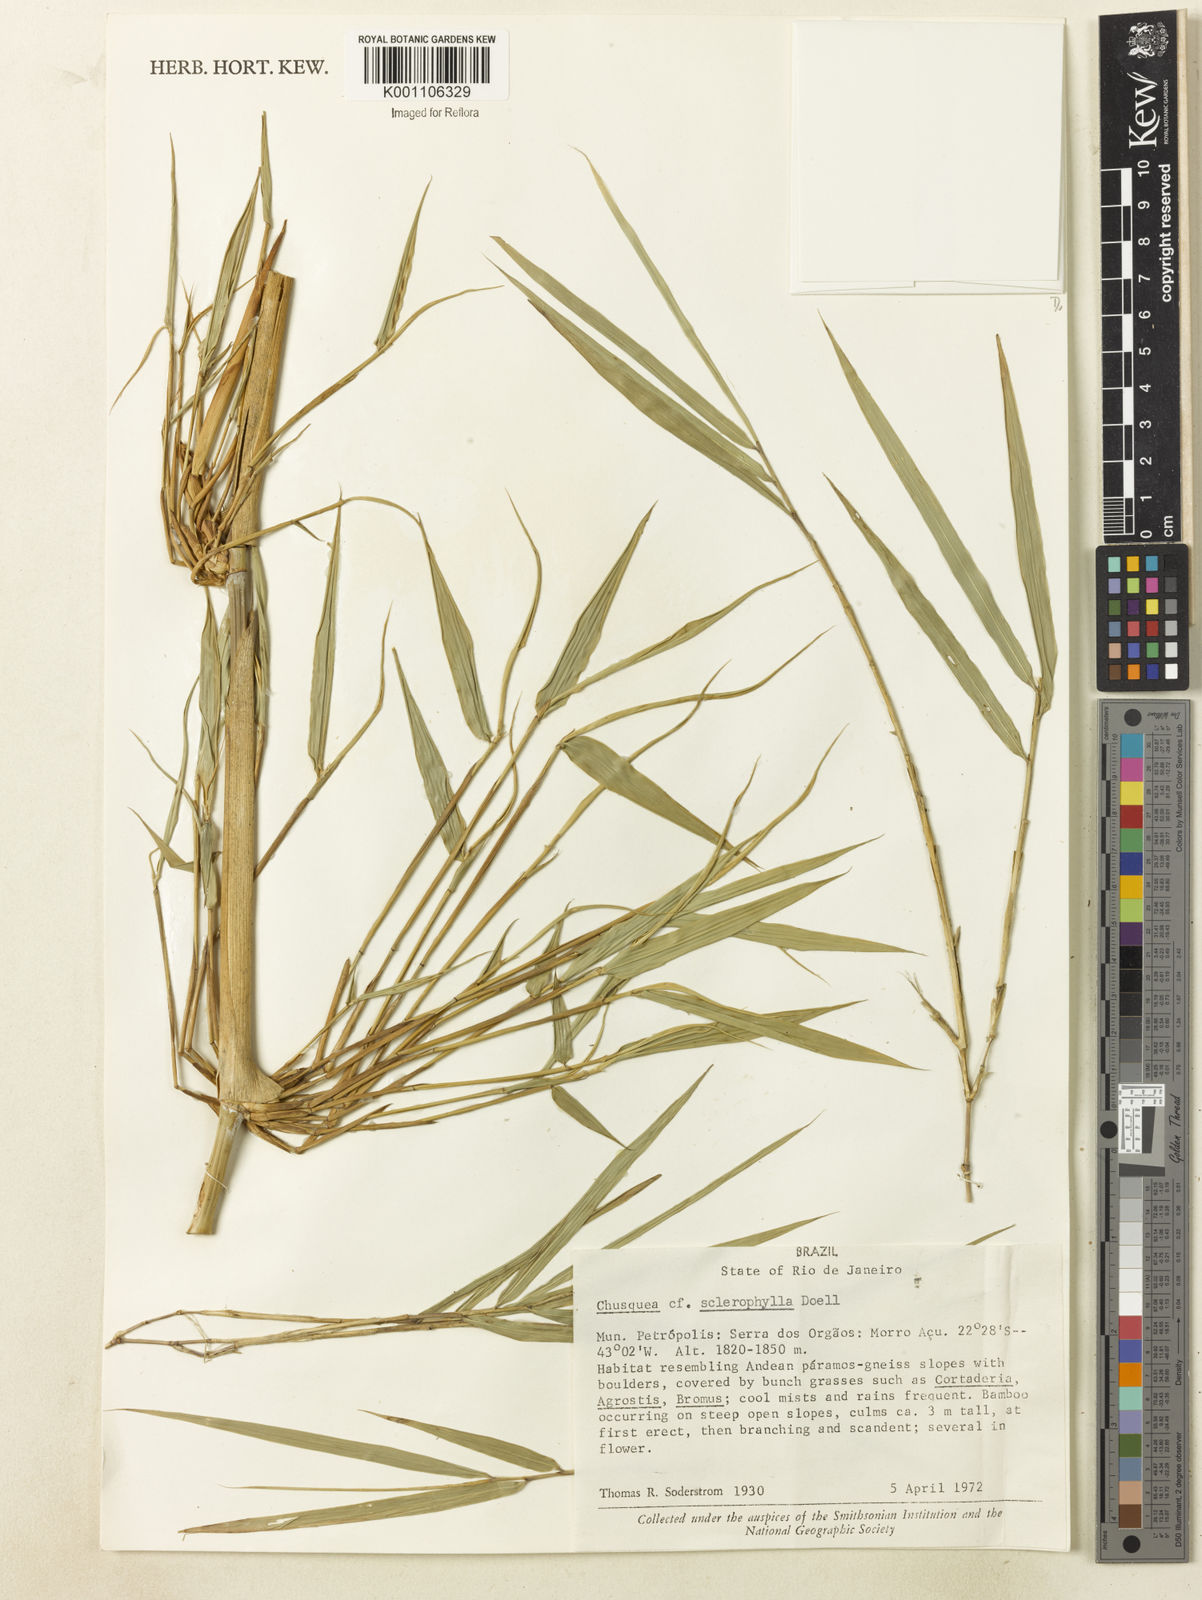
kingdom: Plantae
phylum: Tracheophyta
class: Liliopsida
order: Poales
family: Poaceae
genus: Chusquea
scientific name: Chusquea
